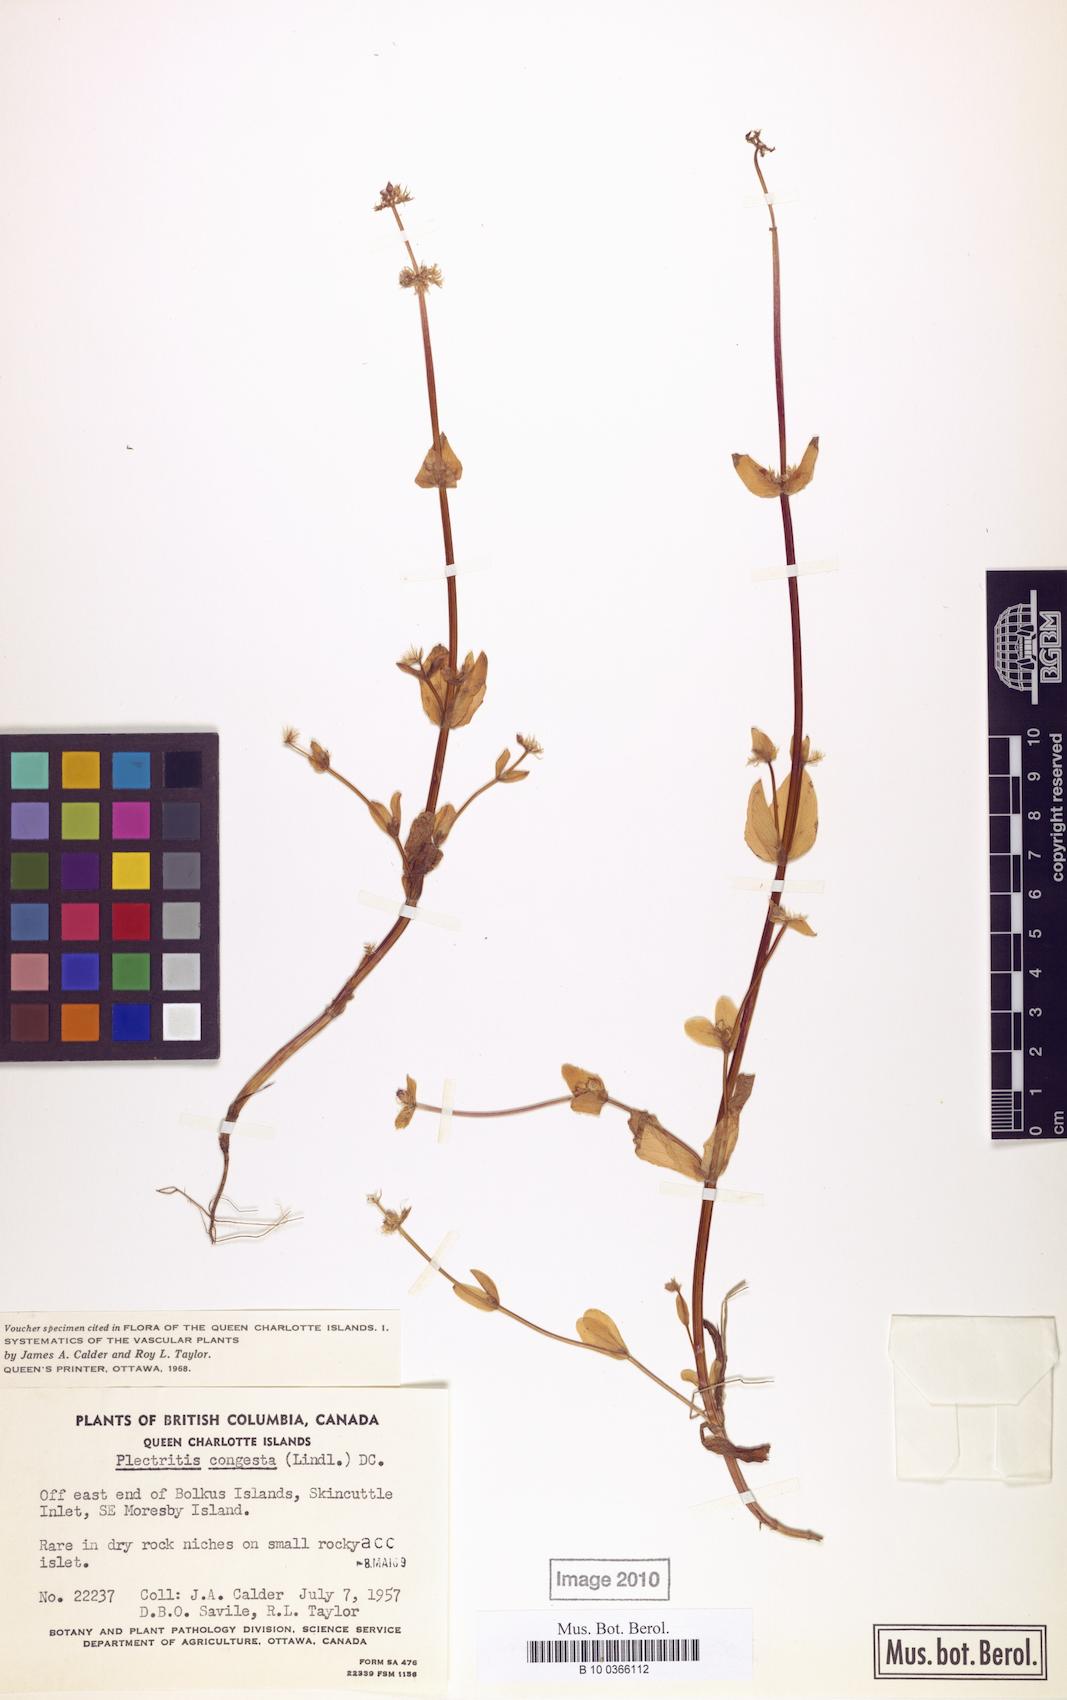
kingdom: Plantae
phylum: Tracheophyta
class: Magnoliopsida
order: Dipsacales
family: Caprifoliaceae
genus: Plectritis
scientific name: Plectritis congesta
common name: Pink plectritis
